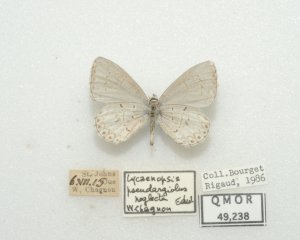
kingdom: Animalia
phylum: Arthropoda
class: Insecta
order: Lepidoptera
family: Lycaenidae
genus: Cyaniris
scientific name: Cyaniris neglecta
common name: Summer Azure
